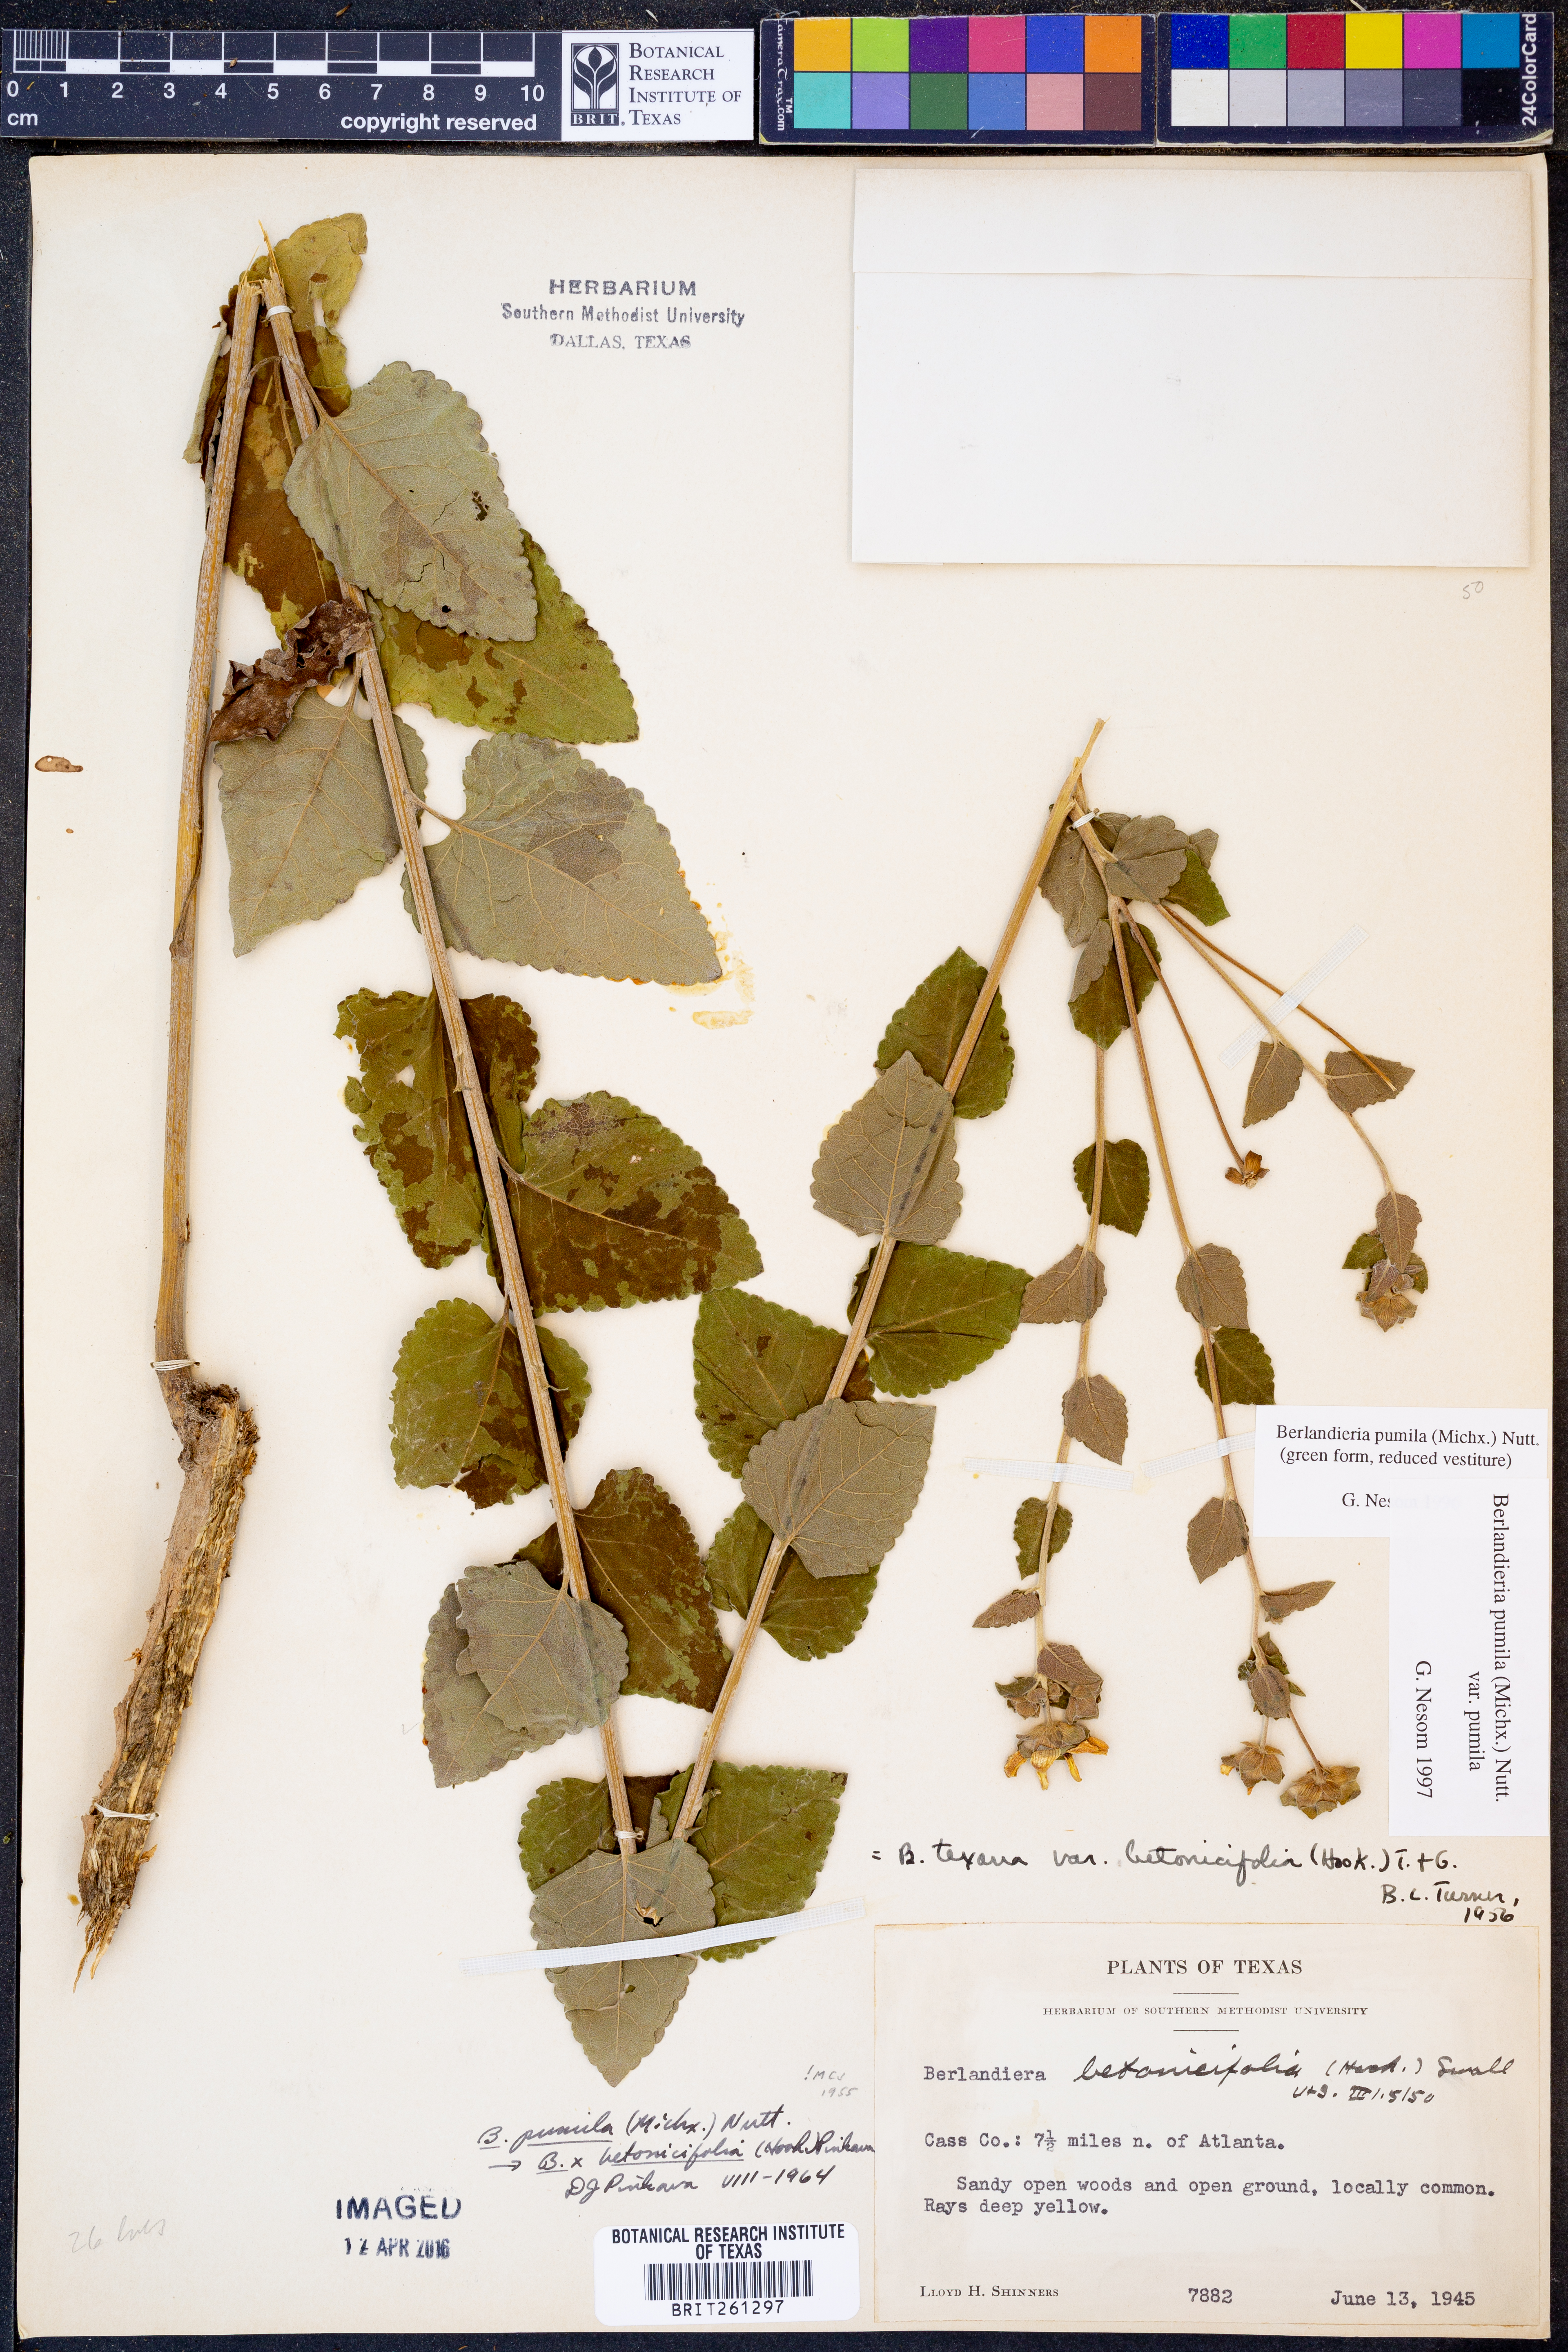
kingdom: Plantae
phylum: Tracheophyta
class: Magnoliopsida
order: Asterales
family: Asteraceae
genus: Berlandiera
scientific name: Berlandiera pumila
